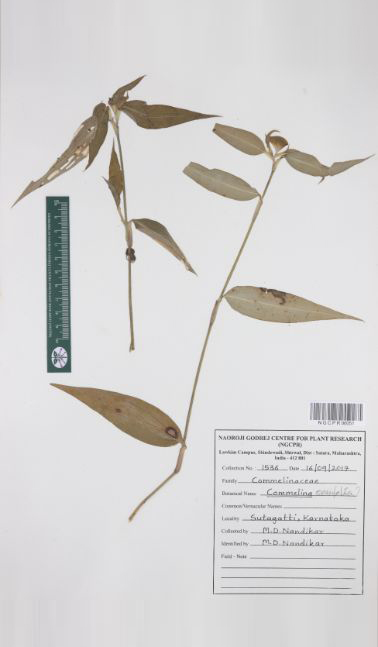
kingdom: Plantae
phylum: Tracheophyta
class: Liliopsida
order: Commelinales
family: Commelinaceae
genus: Commelina
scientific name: Commelina ensifolia
